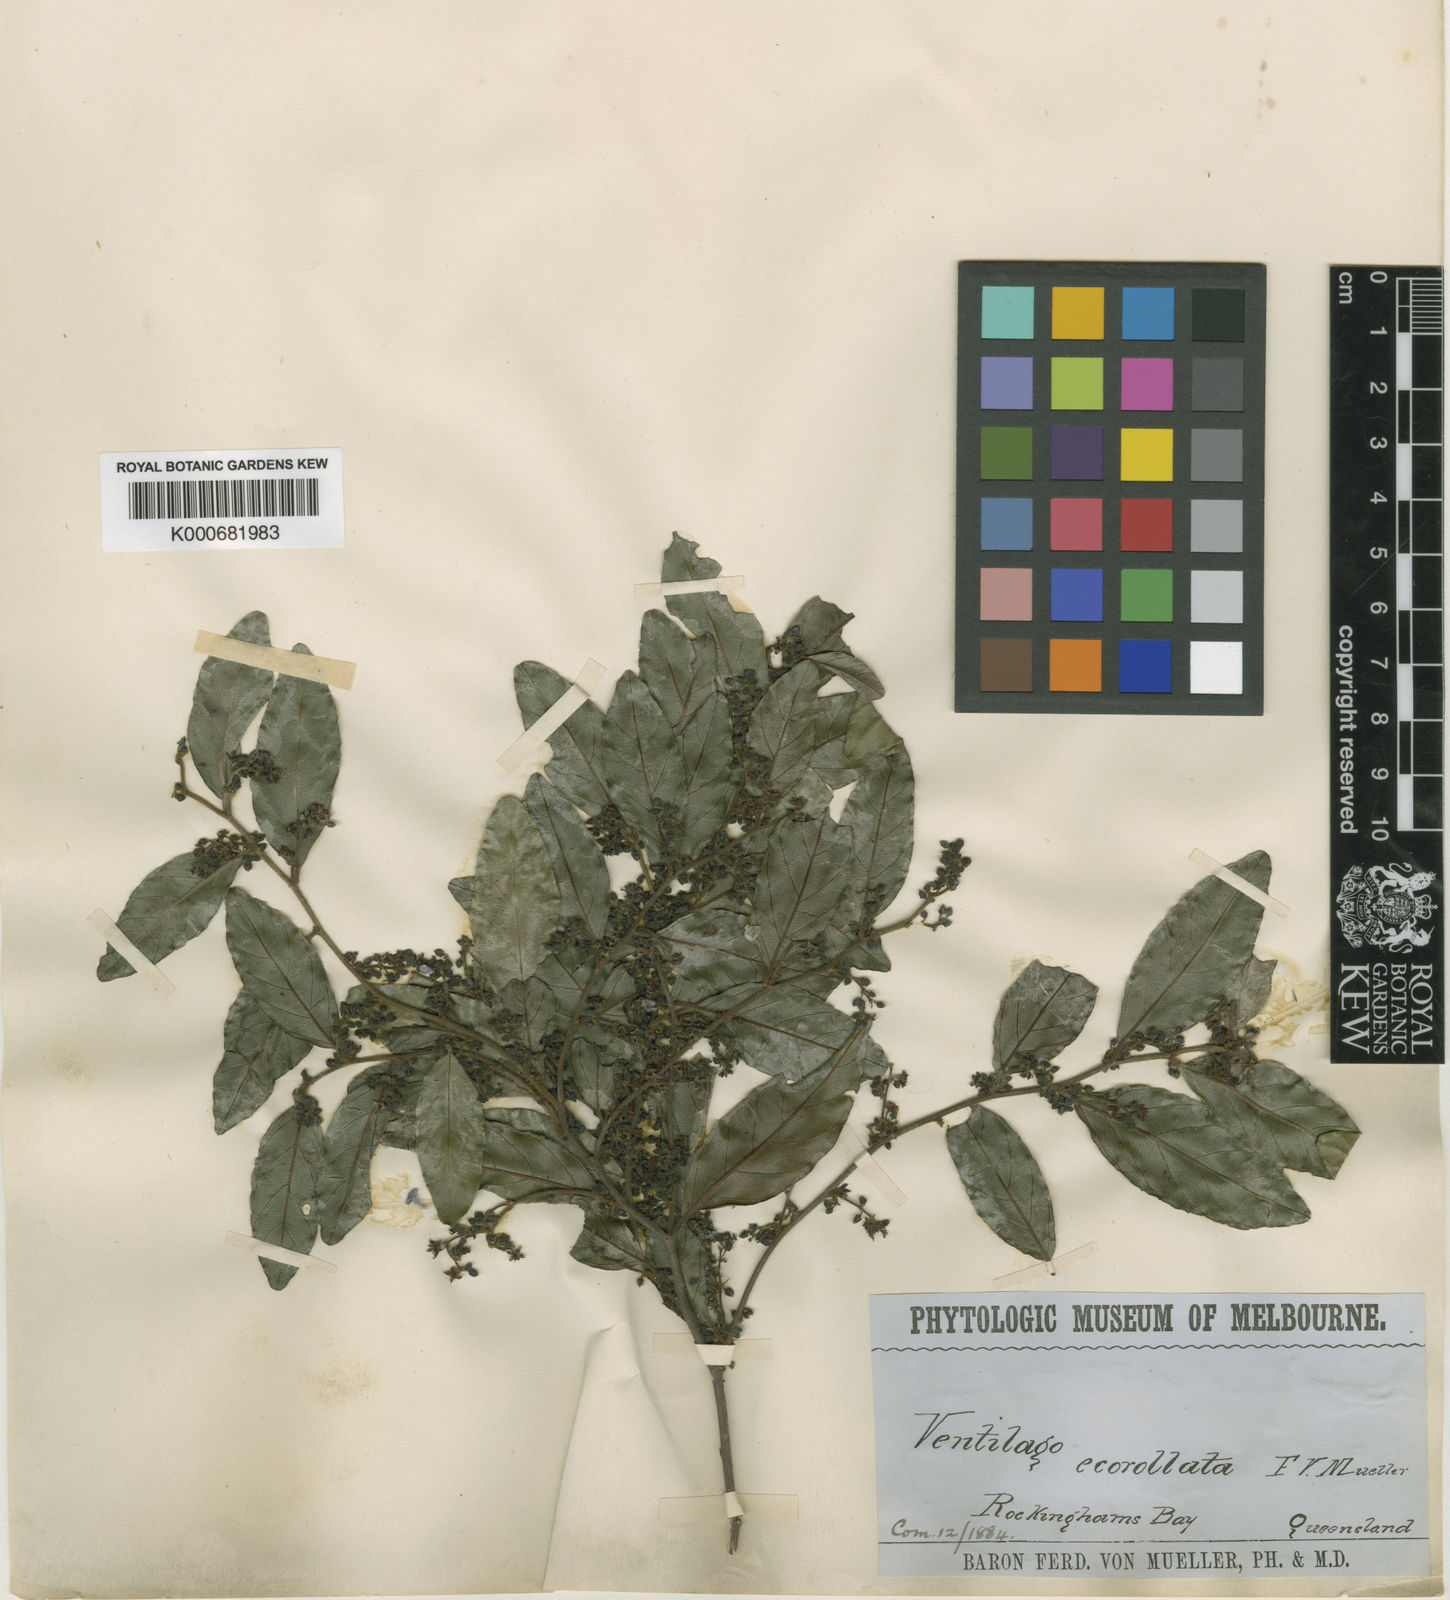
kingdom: Plantae
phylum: Tracheophyta
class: Magnoliopsida
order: Rosales
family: Rhamnaceae
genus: Ventilago
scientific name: Ventilago ecorollata
